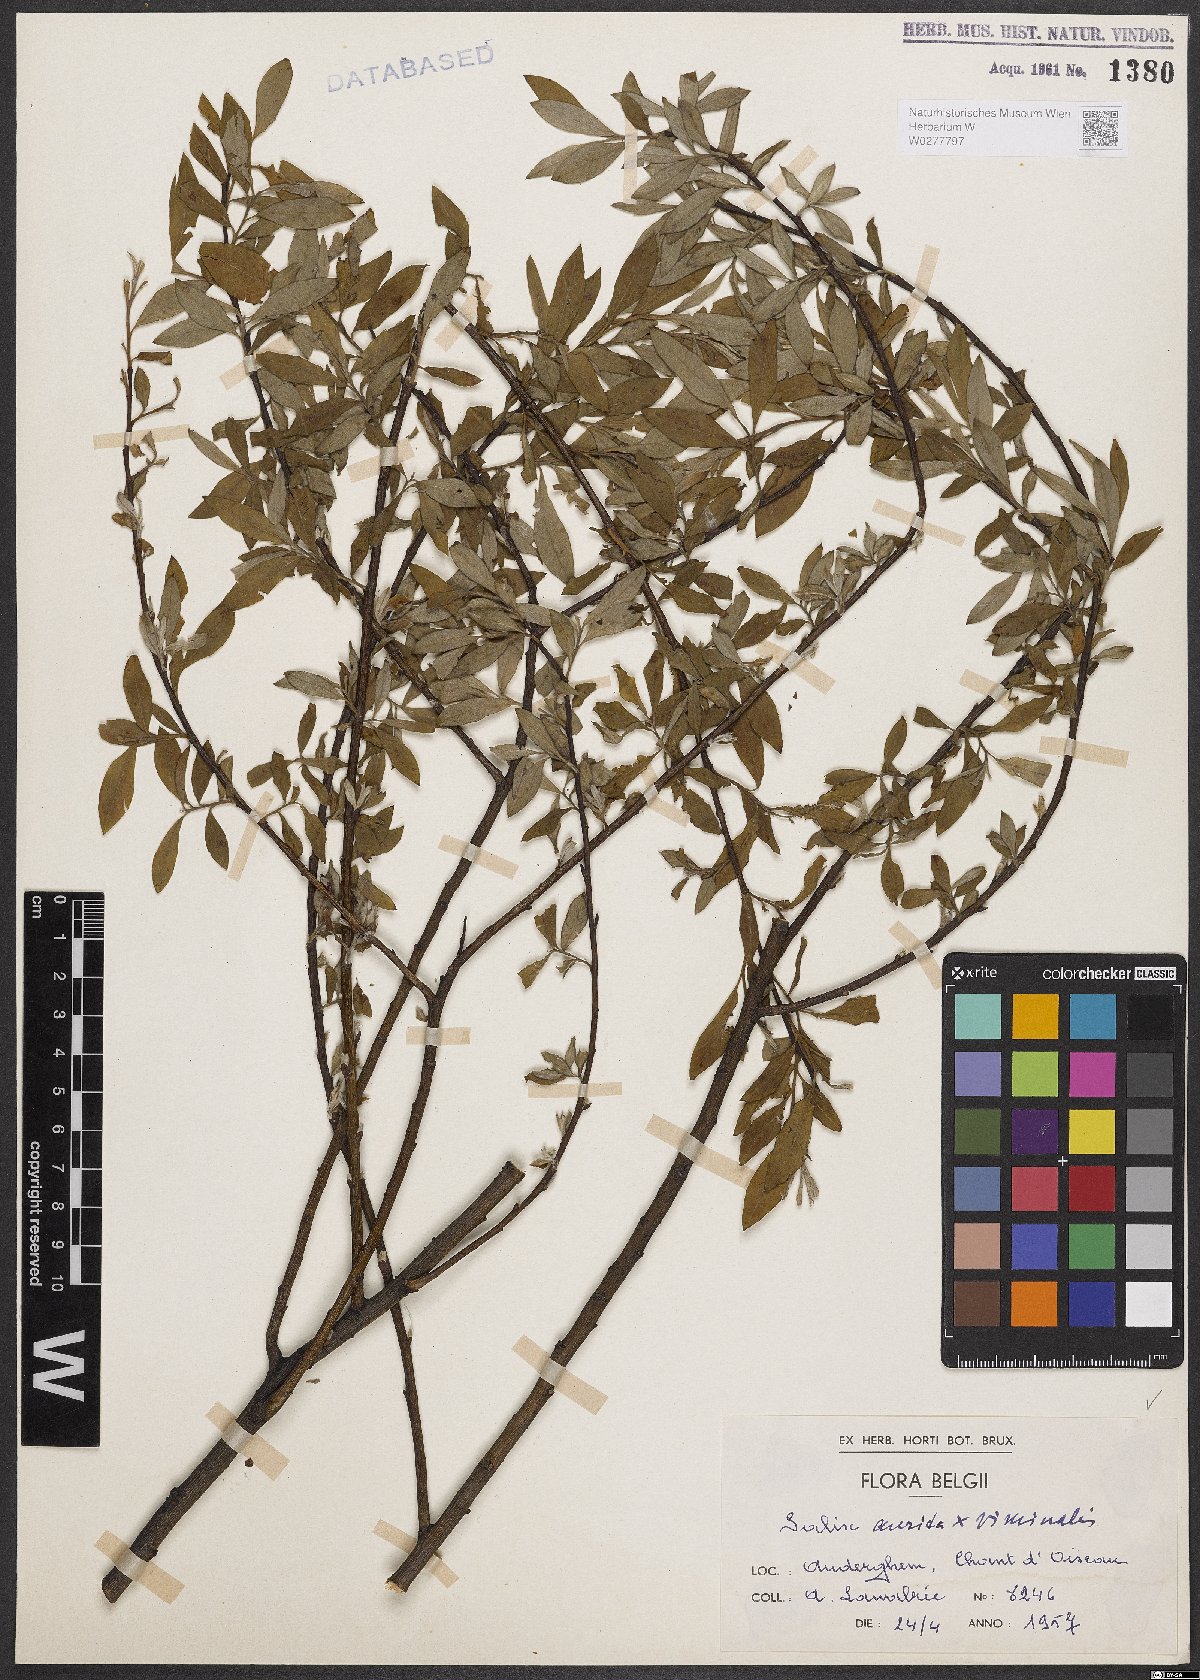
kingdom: Plantae
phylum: Tracheophyta
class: Magnoliopsida
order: Malpighiales
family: Salicaceae
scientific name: Salicaceae
